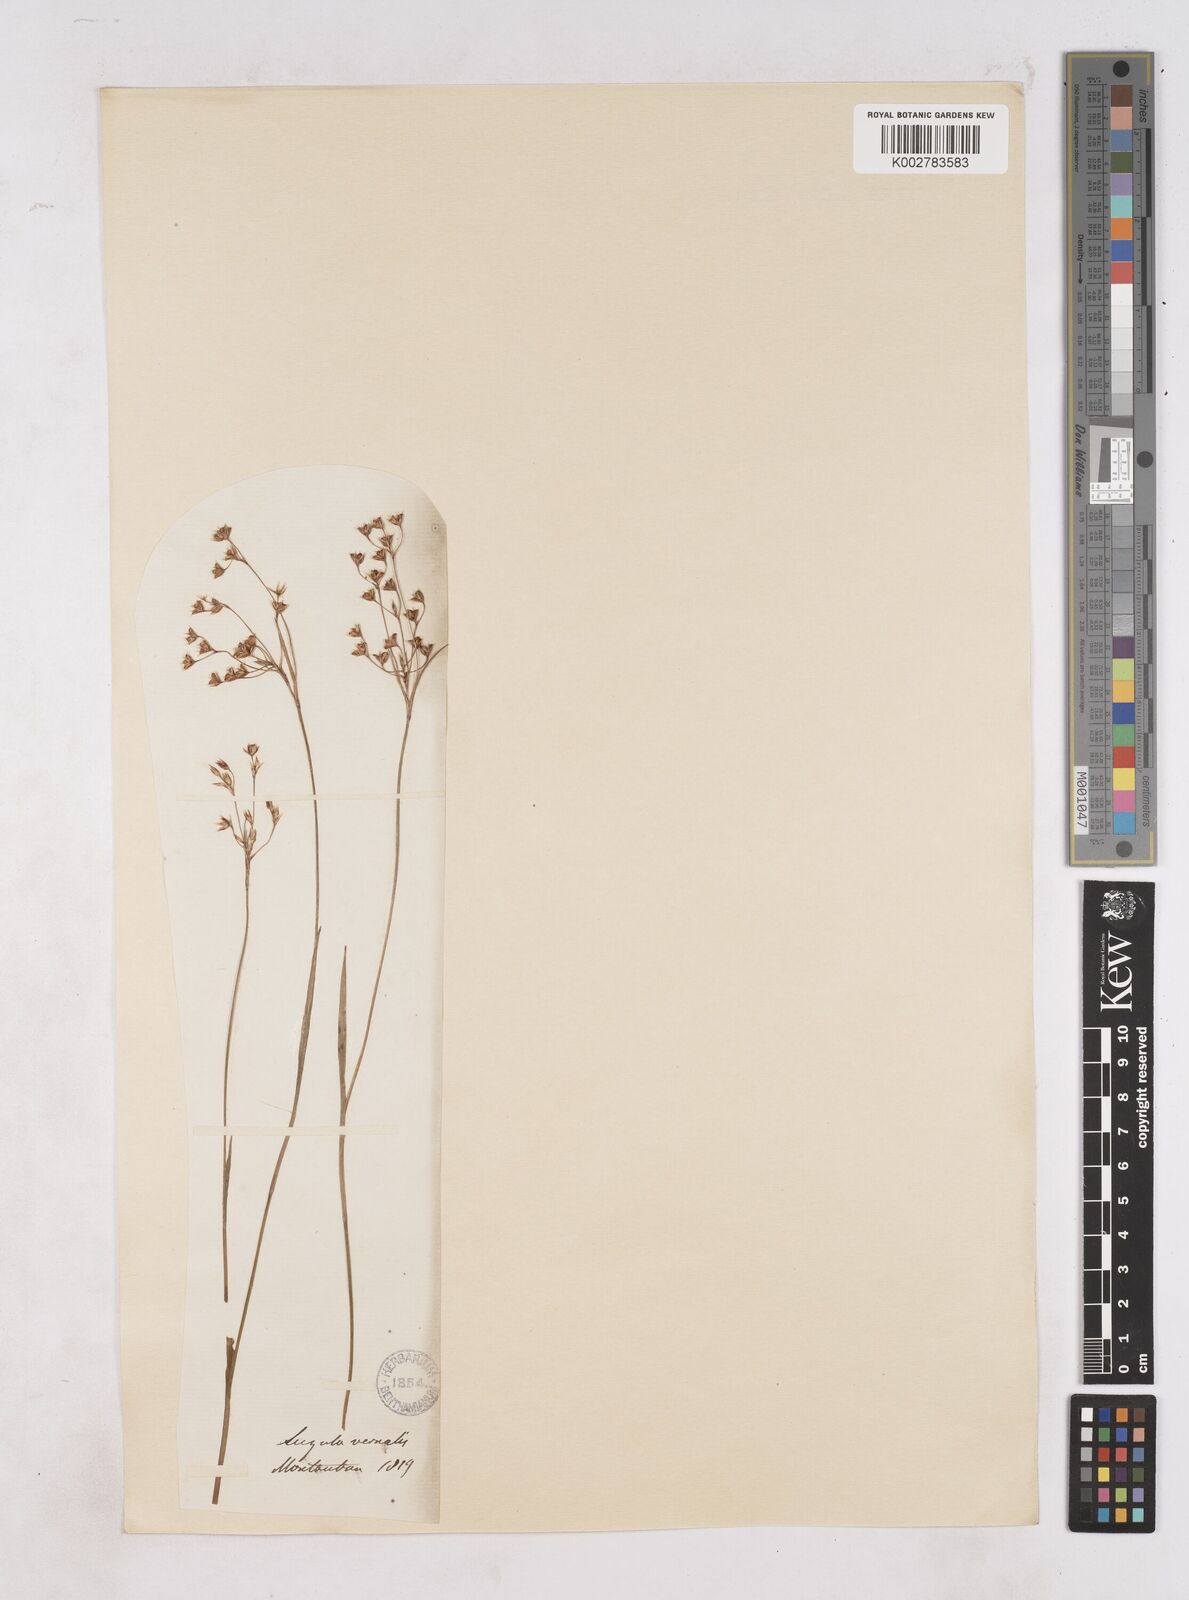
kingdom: Plantae
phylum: Tracheophyta
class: Liliopsida
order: Poales
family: Juncaceae
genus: Luzula
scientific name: Luzula
